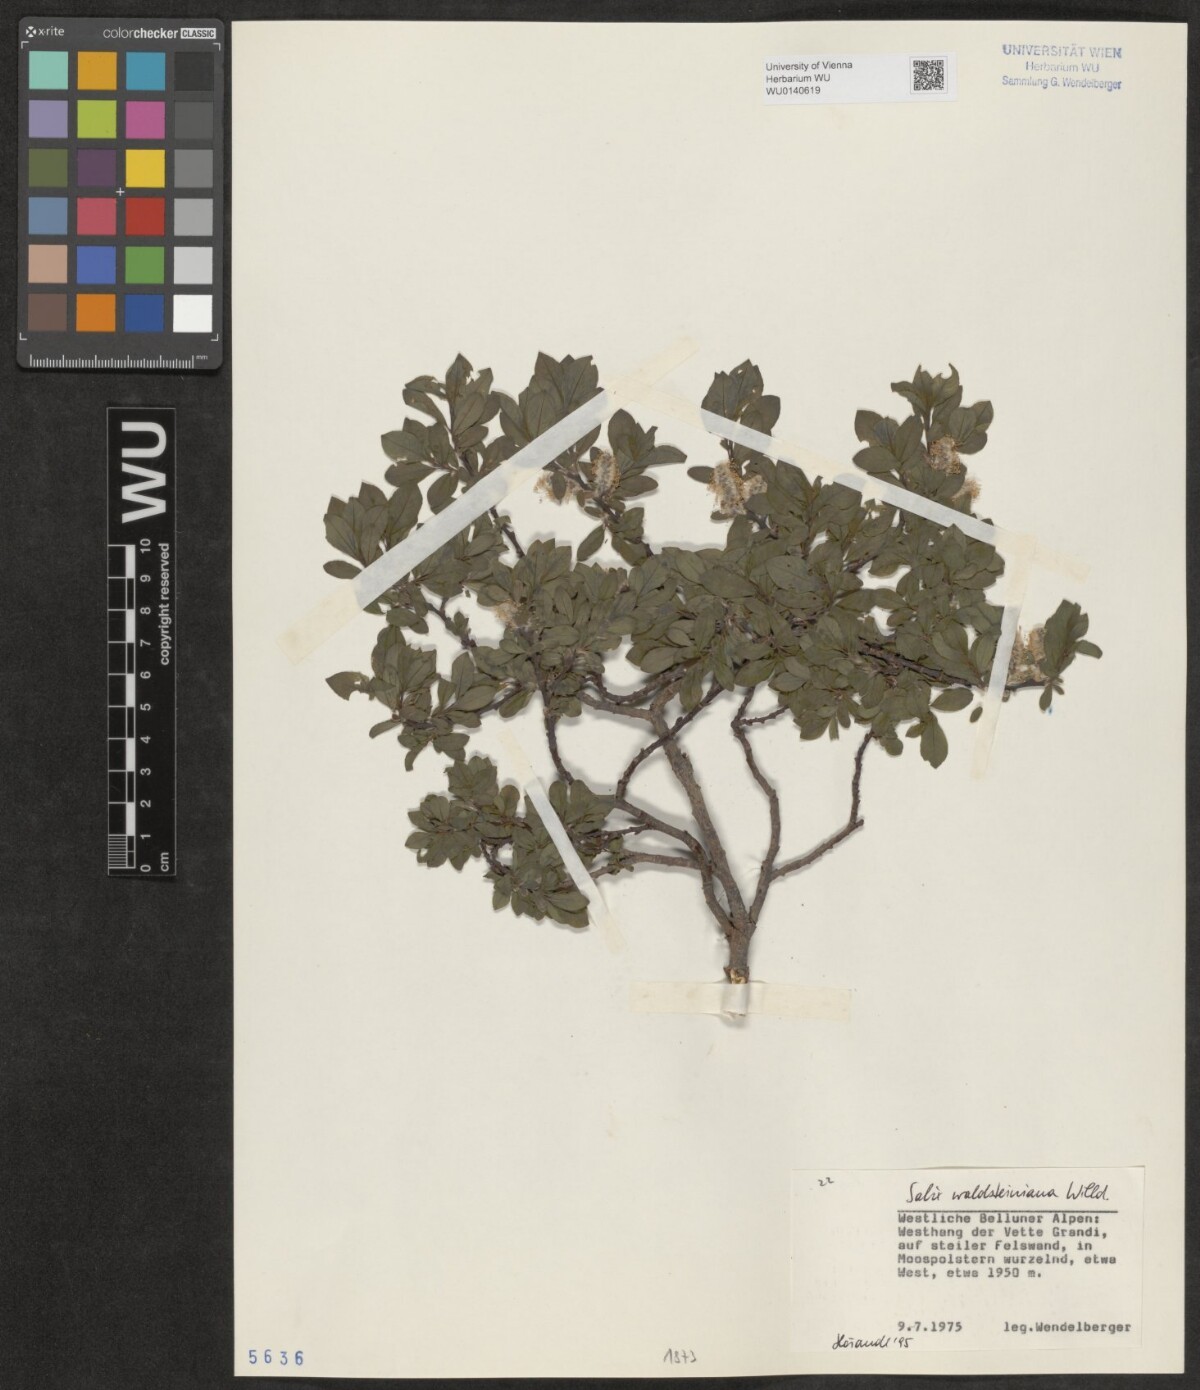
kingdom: Plantae
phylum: Tracheophyta
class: Magnoliopsida
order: Malpighiales
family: Salicaceae
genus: Salix
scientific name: Salix waldsteiniana
